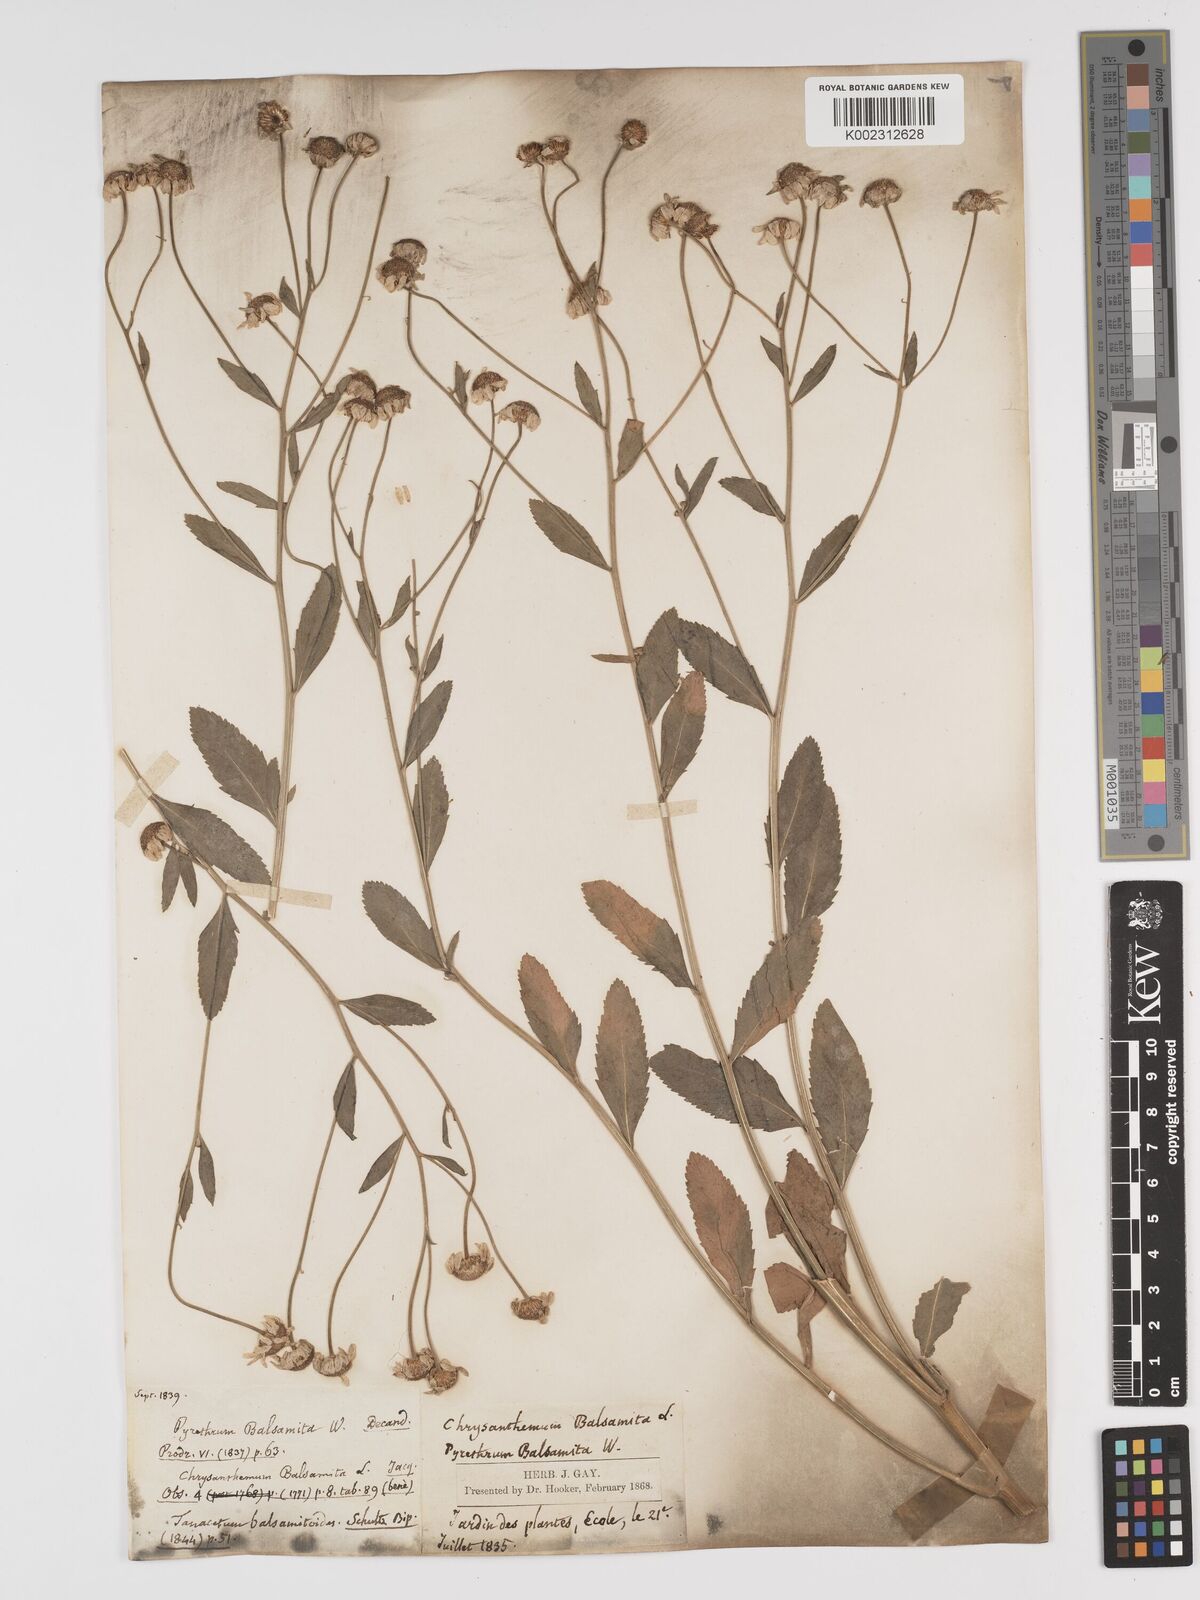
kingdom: Plantae
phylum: Tracheophyta
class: Magnoliopsida
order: Asterales
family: Asteraceae
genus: Tanacetum
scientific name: Tanacetum balsamita
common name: Costmary
